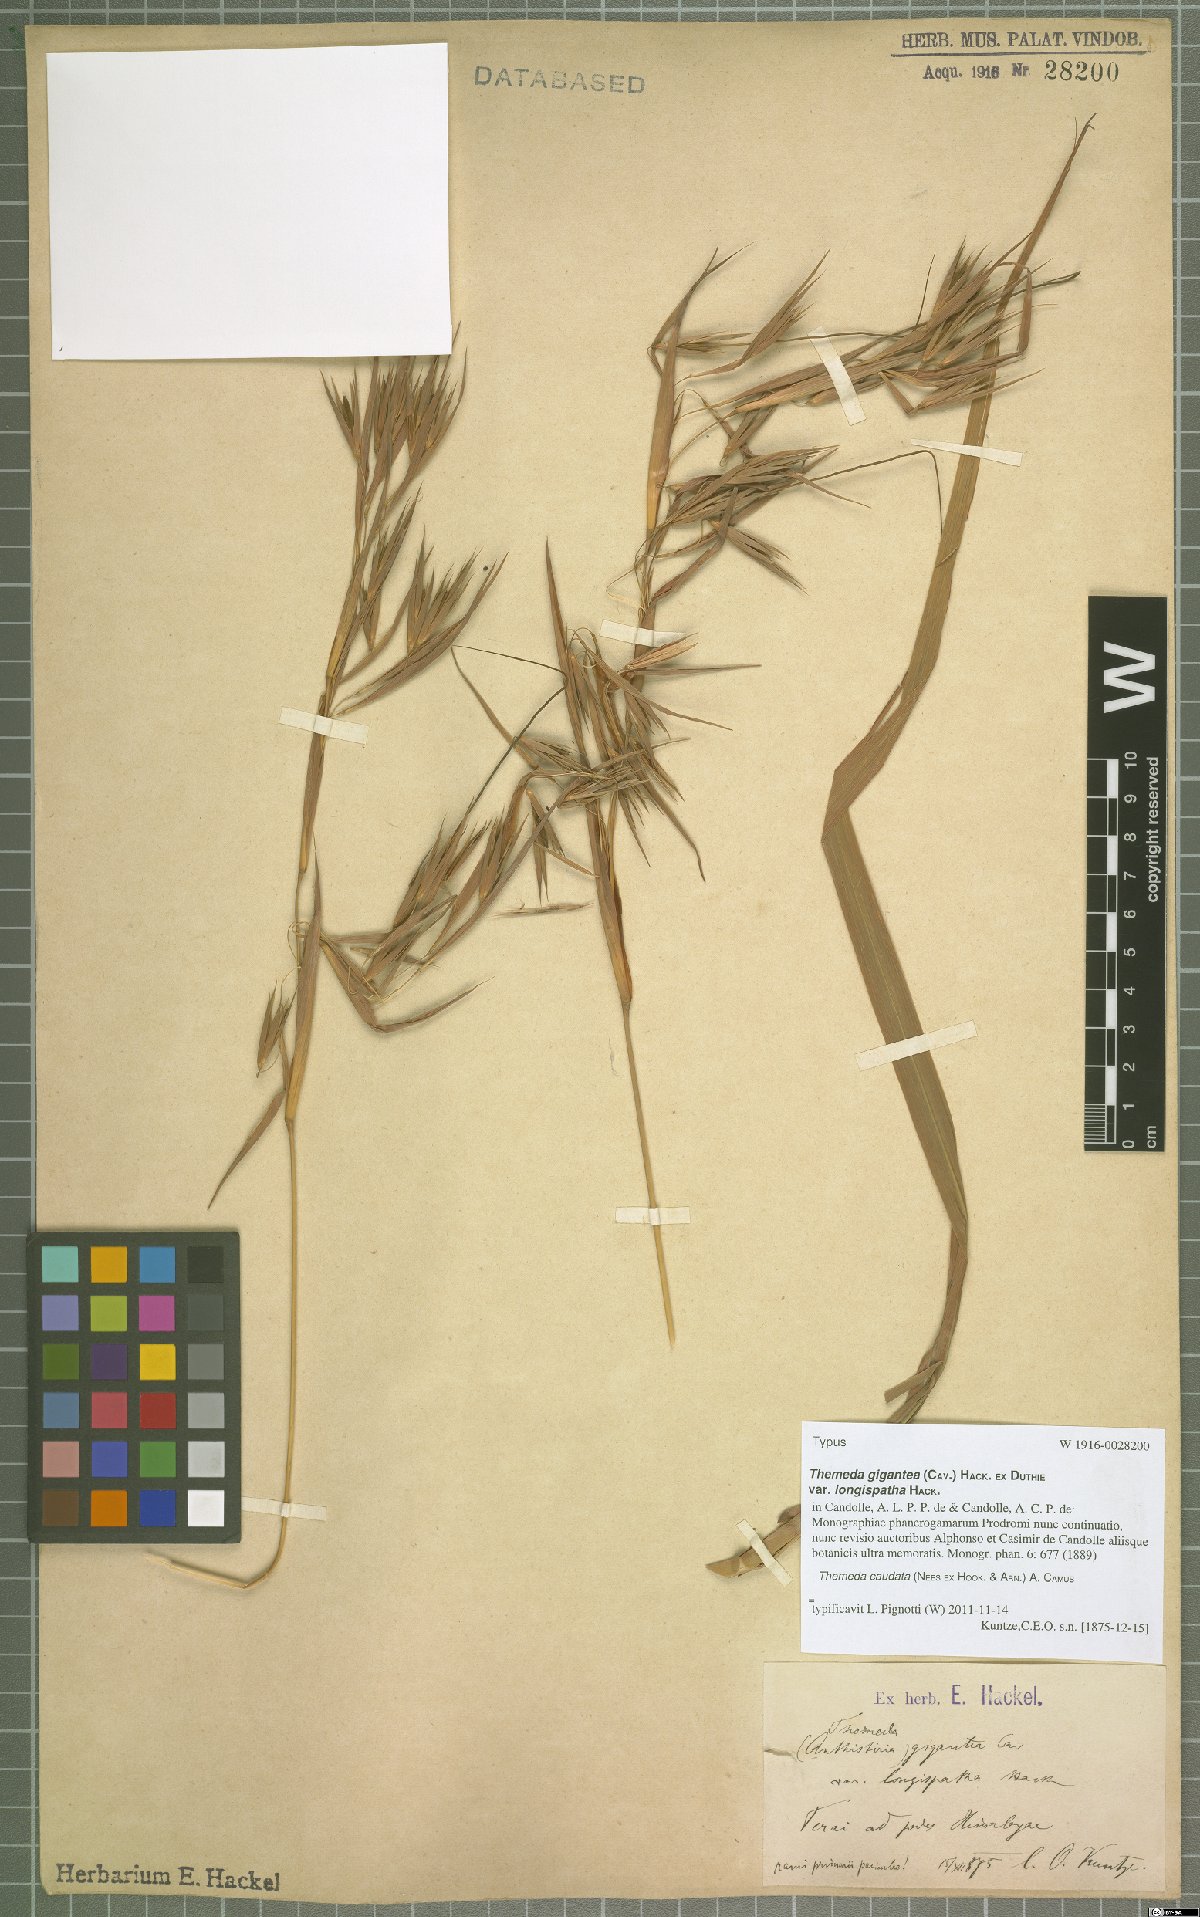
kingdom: Plantae
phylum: Tracheophyta
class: Liliopsida
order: Poales
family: Poaceae
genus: Themeda
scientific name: Themeda caudata
